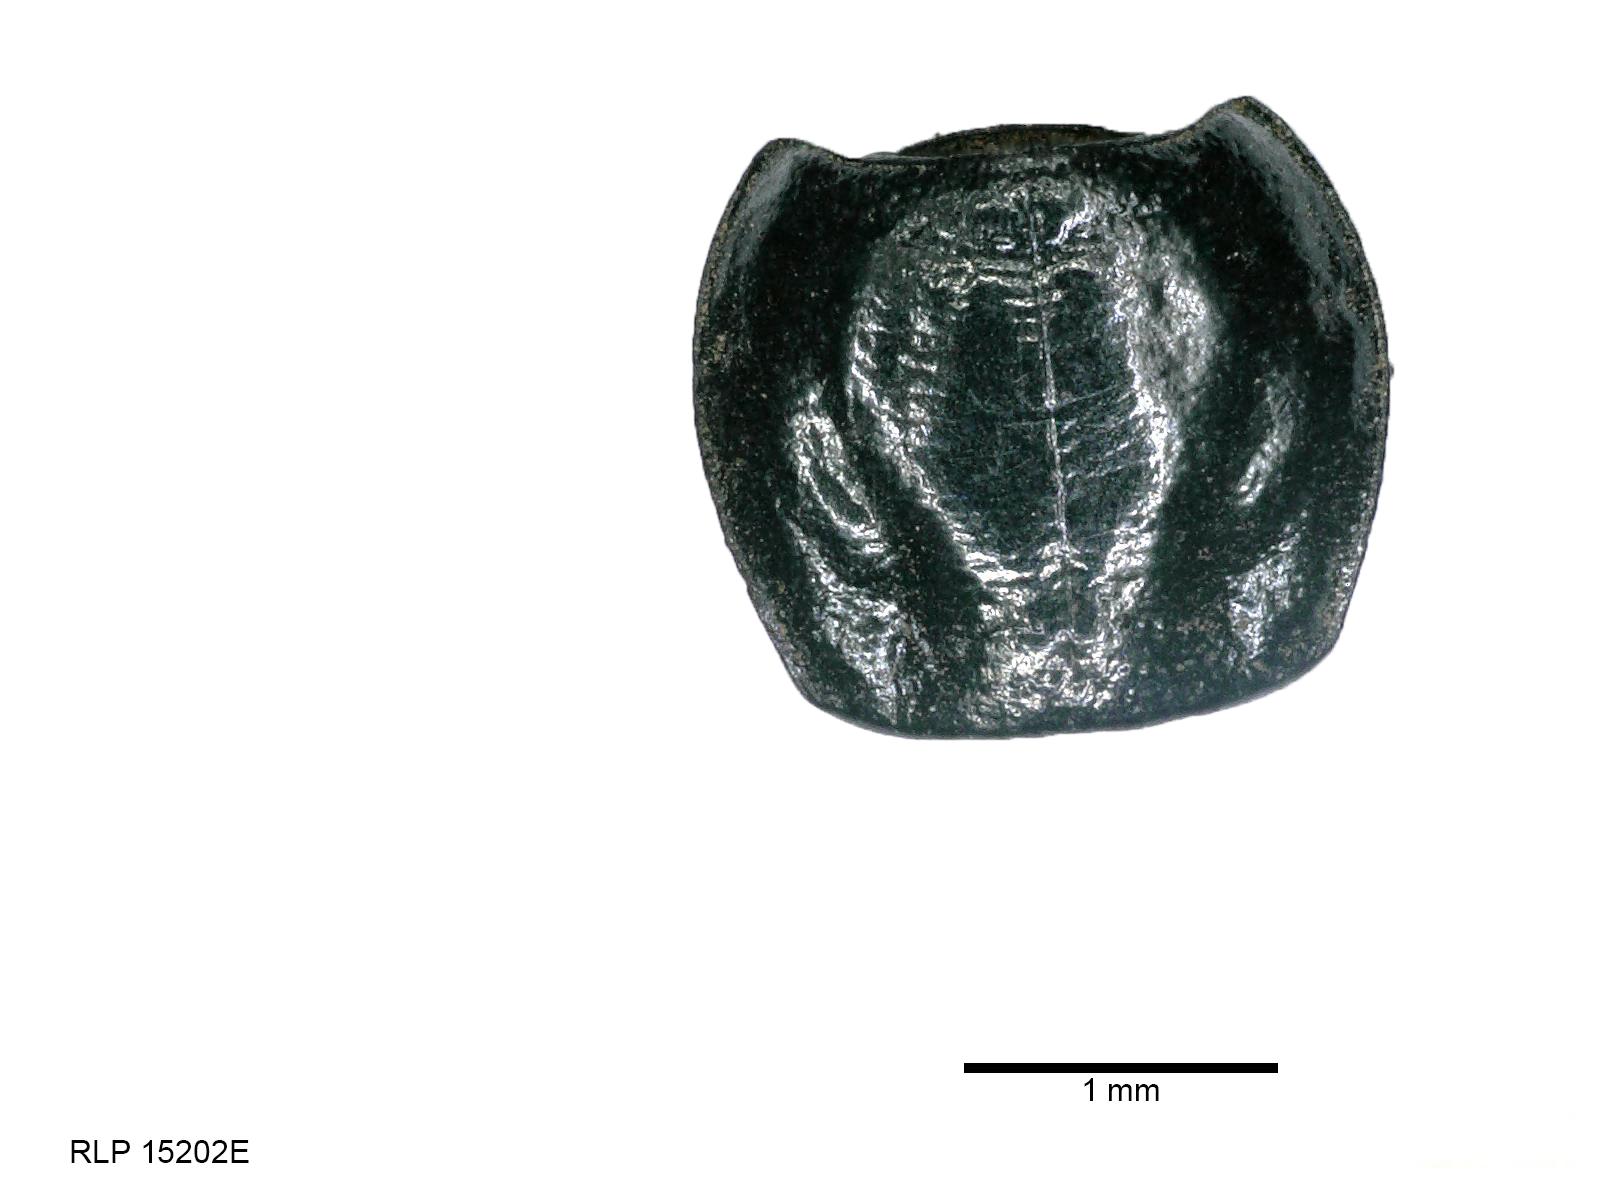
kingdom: Animalia
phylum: Arthropoda
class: Insecta
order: Coleoptera
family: Carabidae
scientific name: Carabidae
